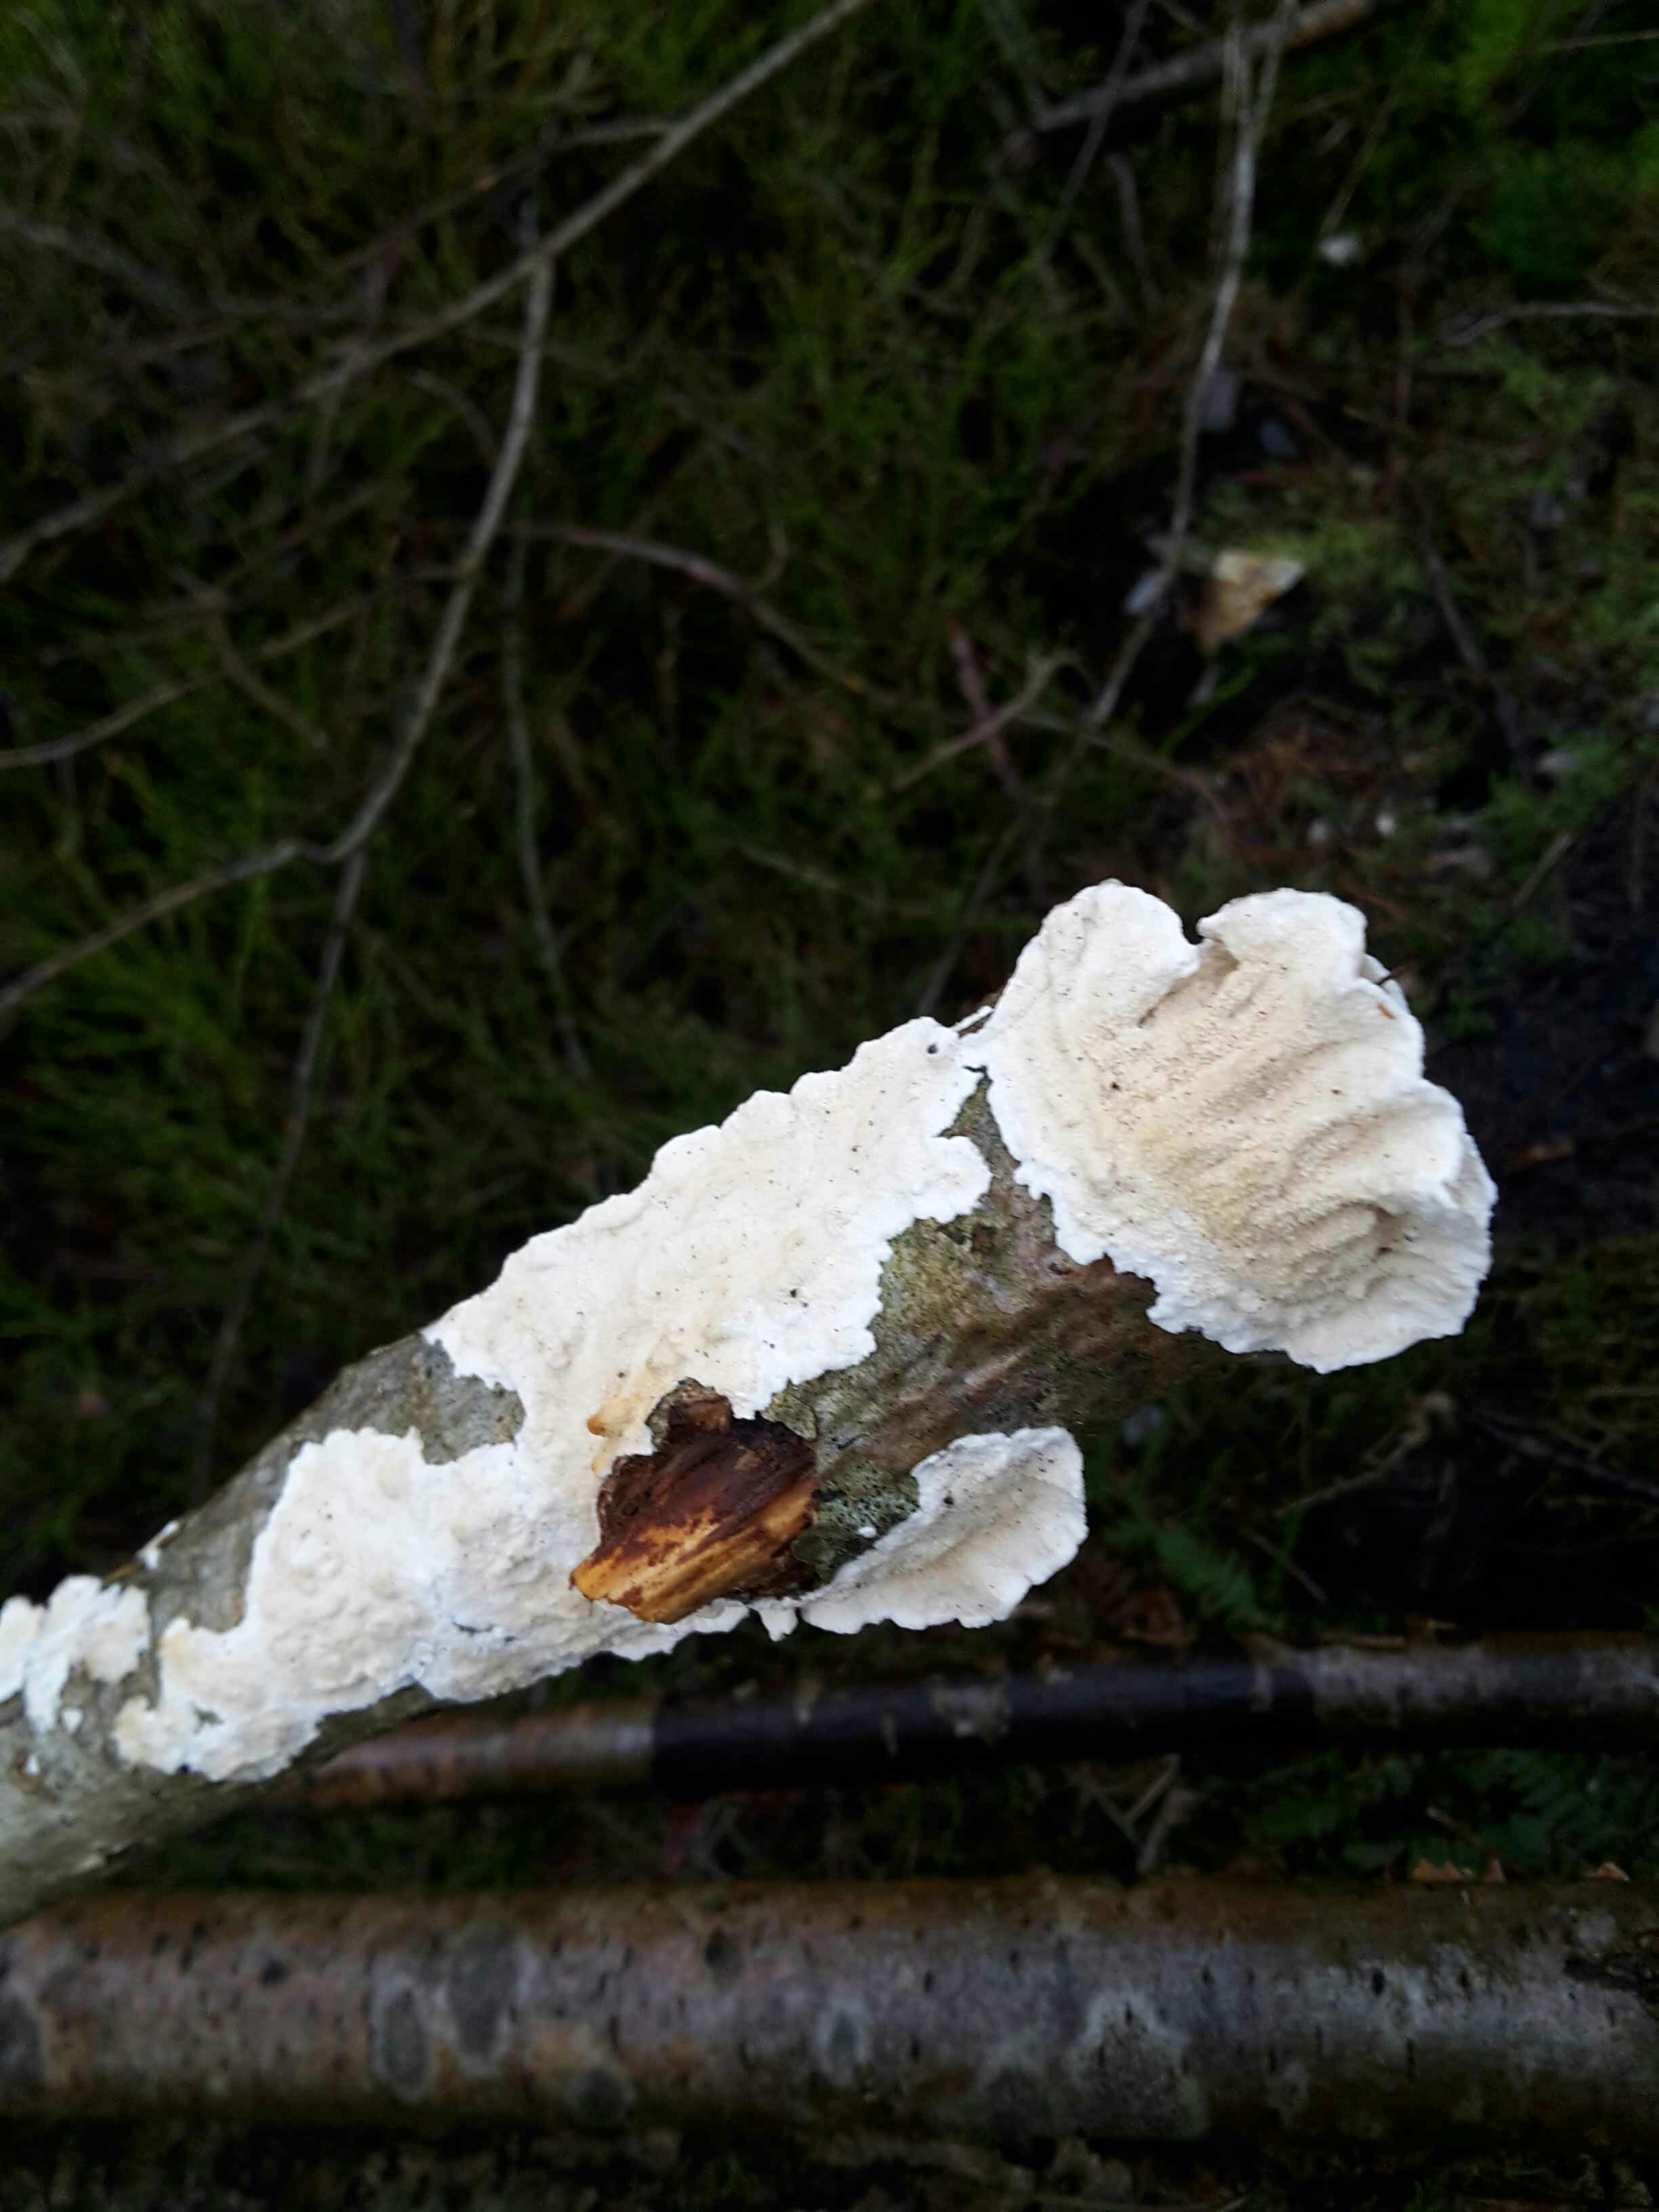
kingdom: Fungi
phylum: Basidiomycota
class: Agaricomycetes
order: Polyporales
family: Irpicaceae
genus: Byssomerulius
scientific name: Byssomerulius corium
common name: læder-åresvamp
